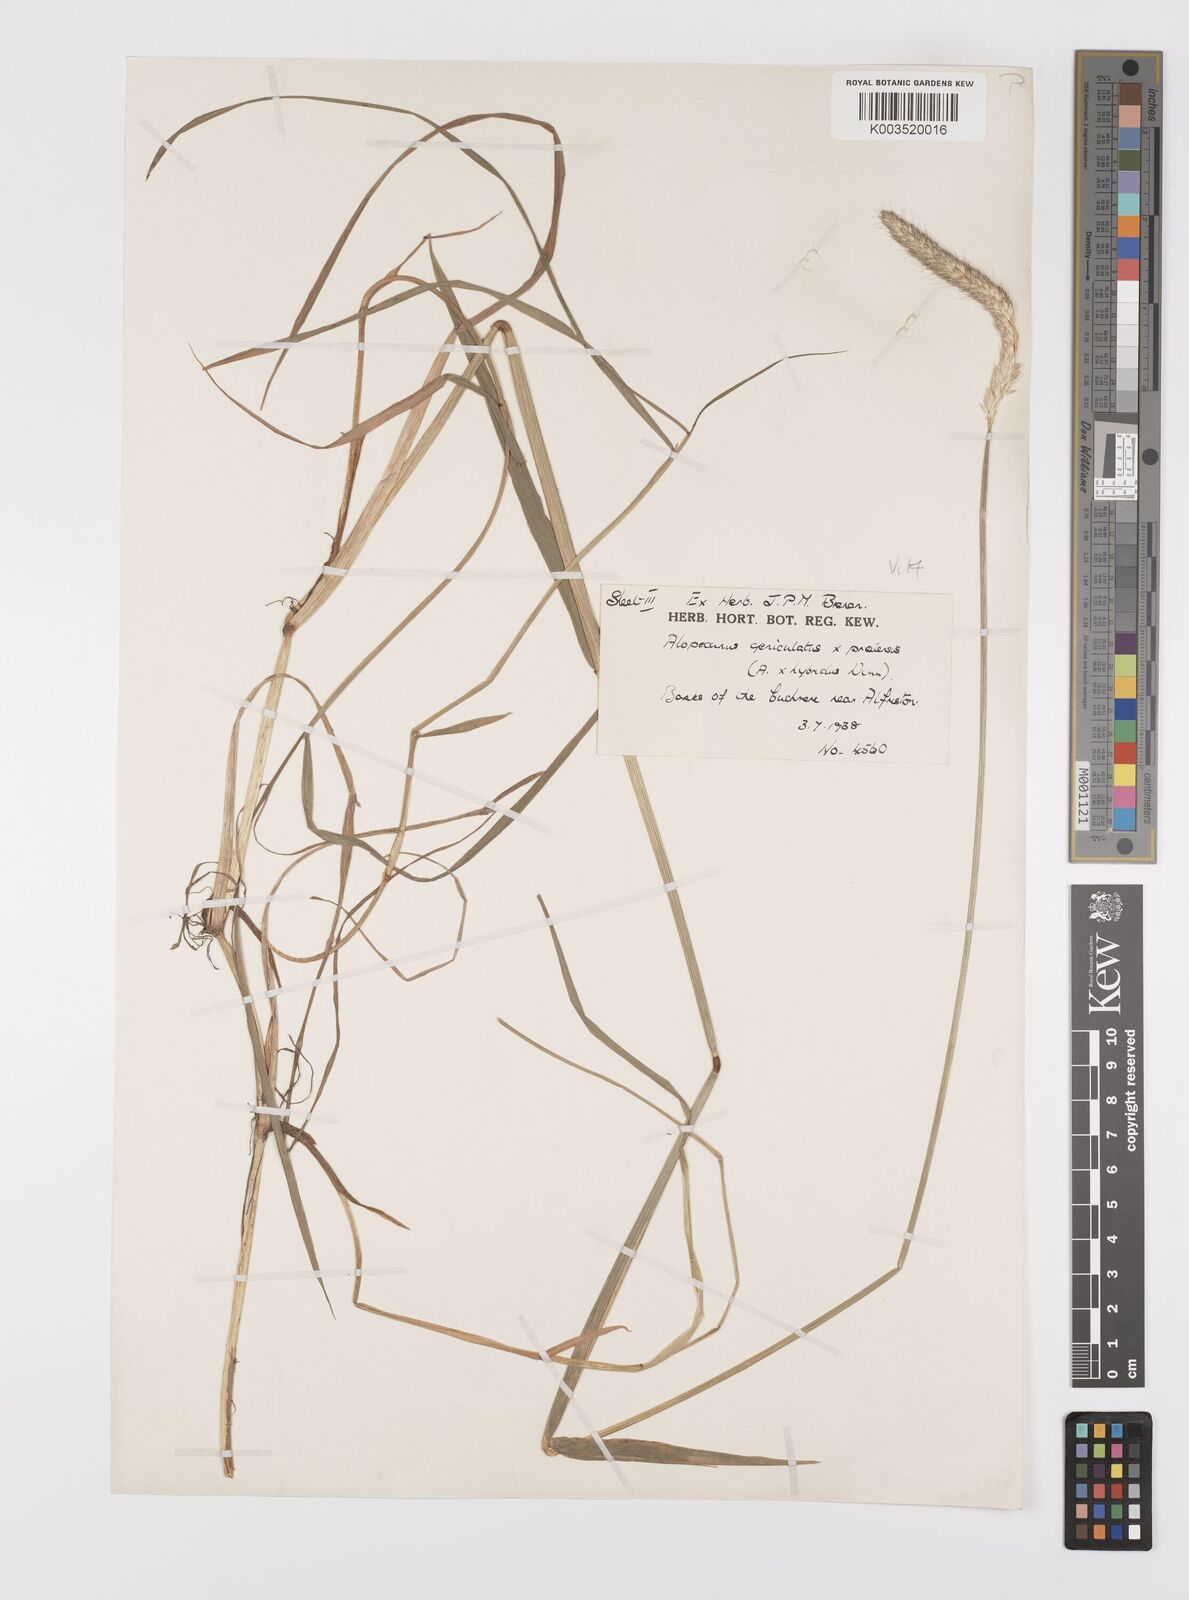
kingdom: Plantae
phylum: Tracheophyta
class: Liliopsida
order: Poales
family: Poaceae
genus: Alopecurus
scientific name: Alopecurus brachystylus
